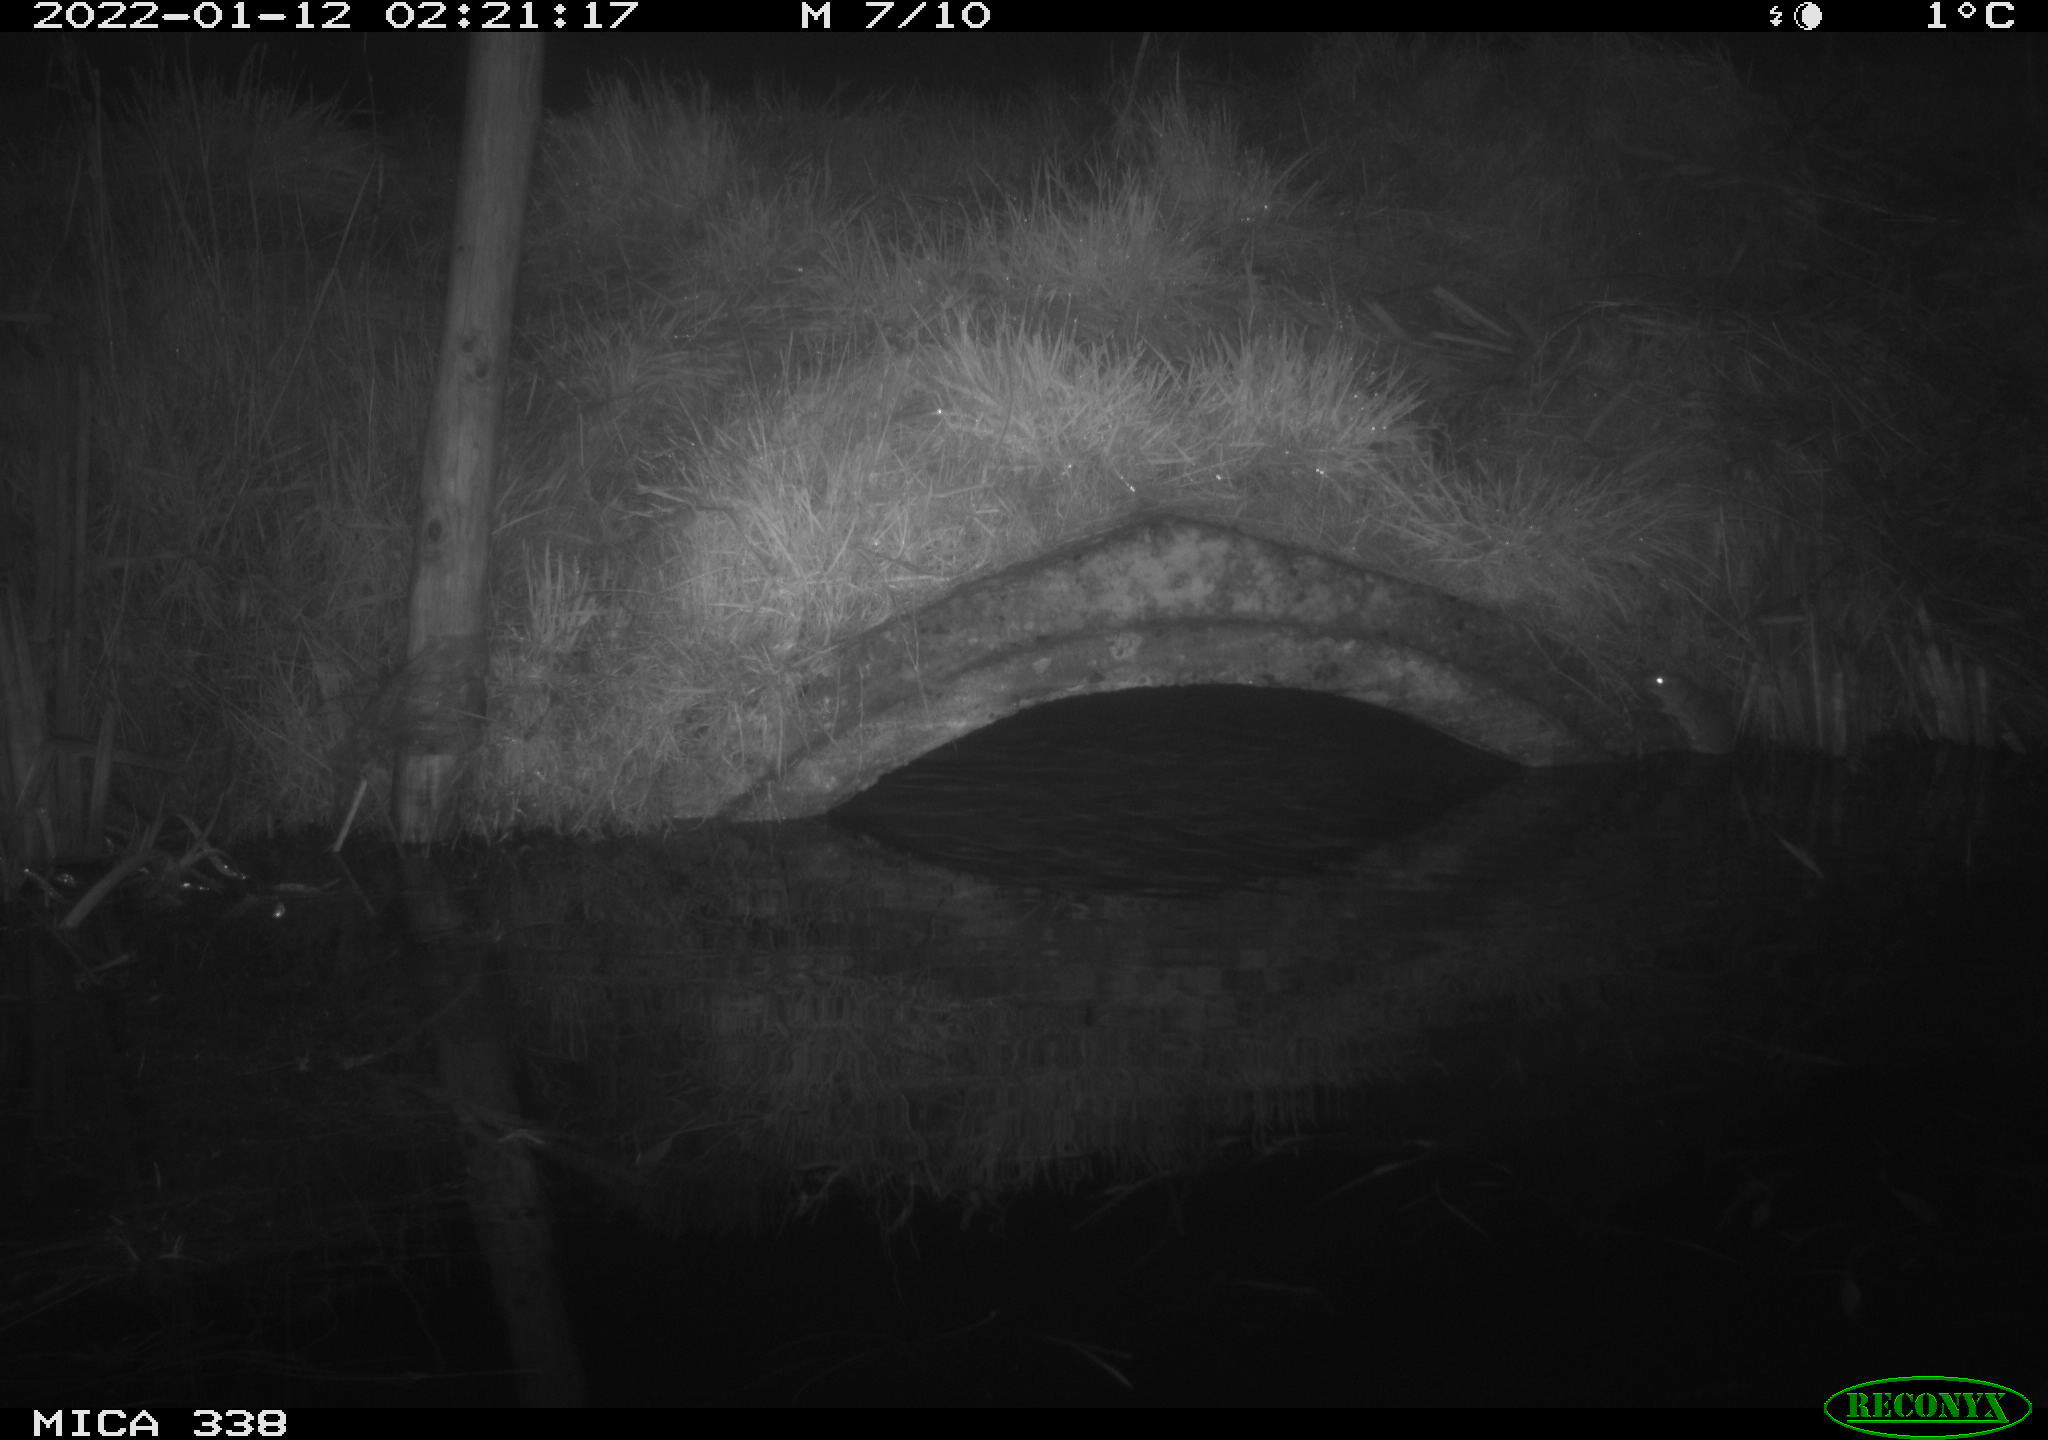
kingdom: Animalia
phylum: Chordata
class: Mammalia
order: Rodentia
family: Muridae
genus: Rattus
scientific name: Rattus norvegicus
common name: Brown rat
